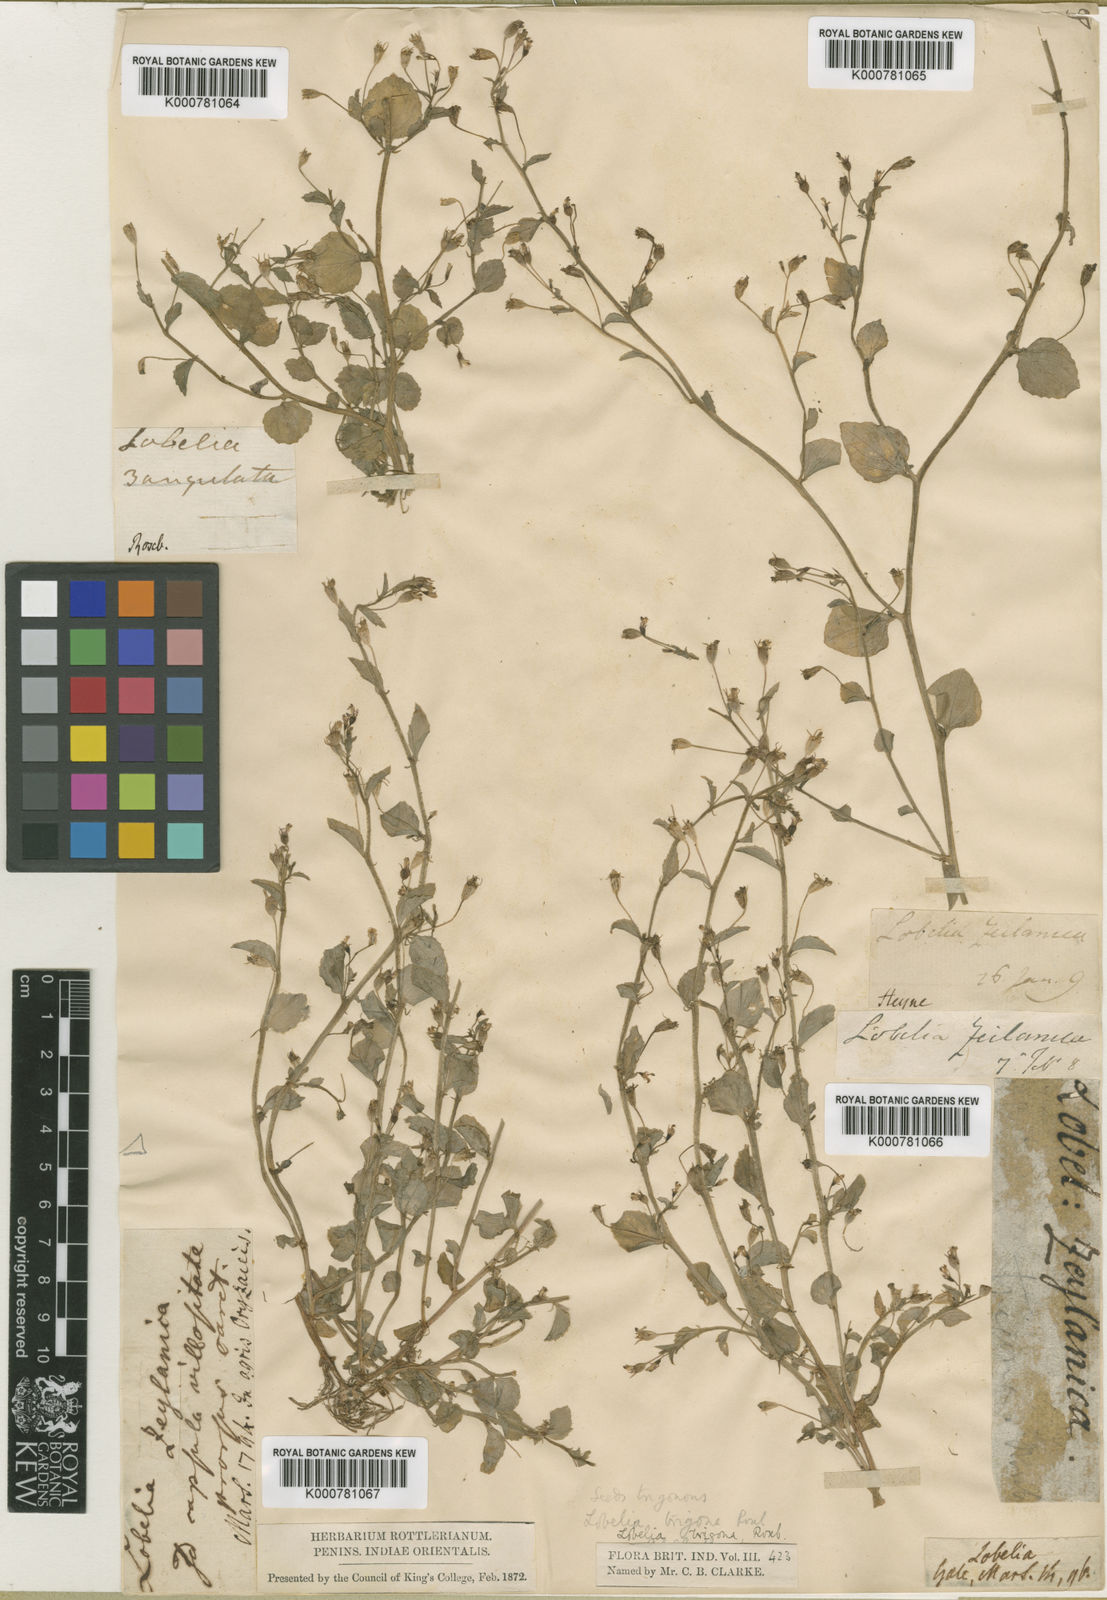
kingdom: Plantae
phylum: Tracheophyta
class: Magnoliopsida
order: Asterales
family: Campanulaceae
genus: Lobelia
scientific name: Lobelia alsinoides
